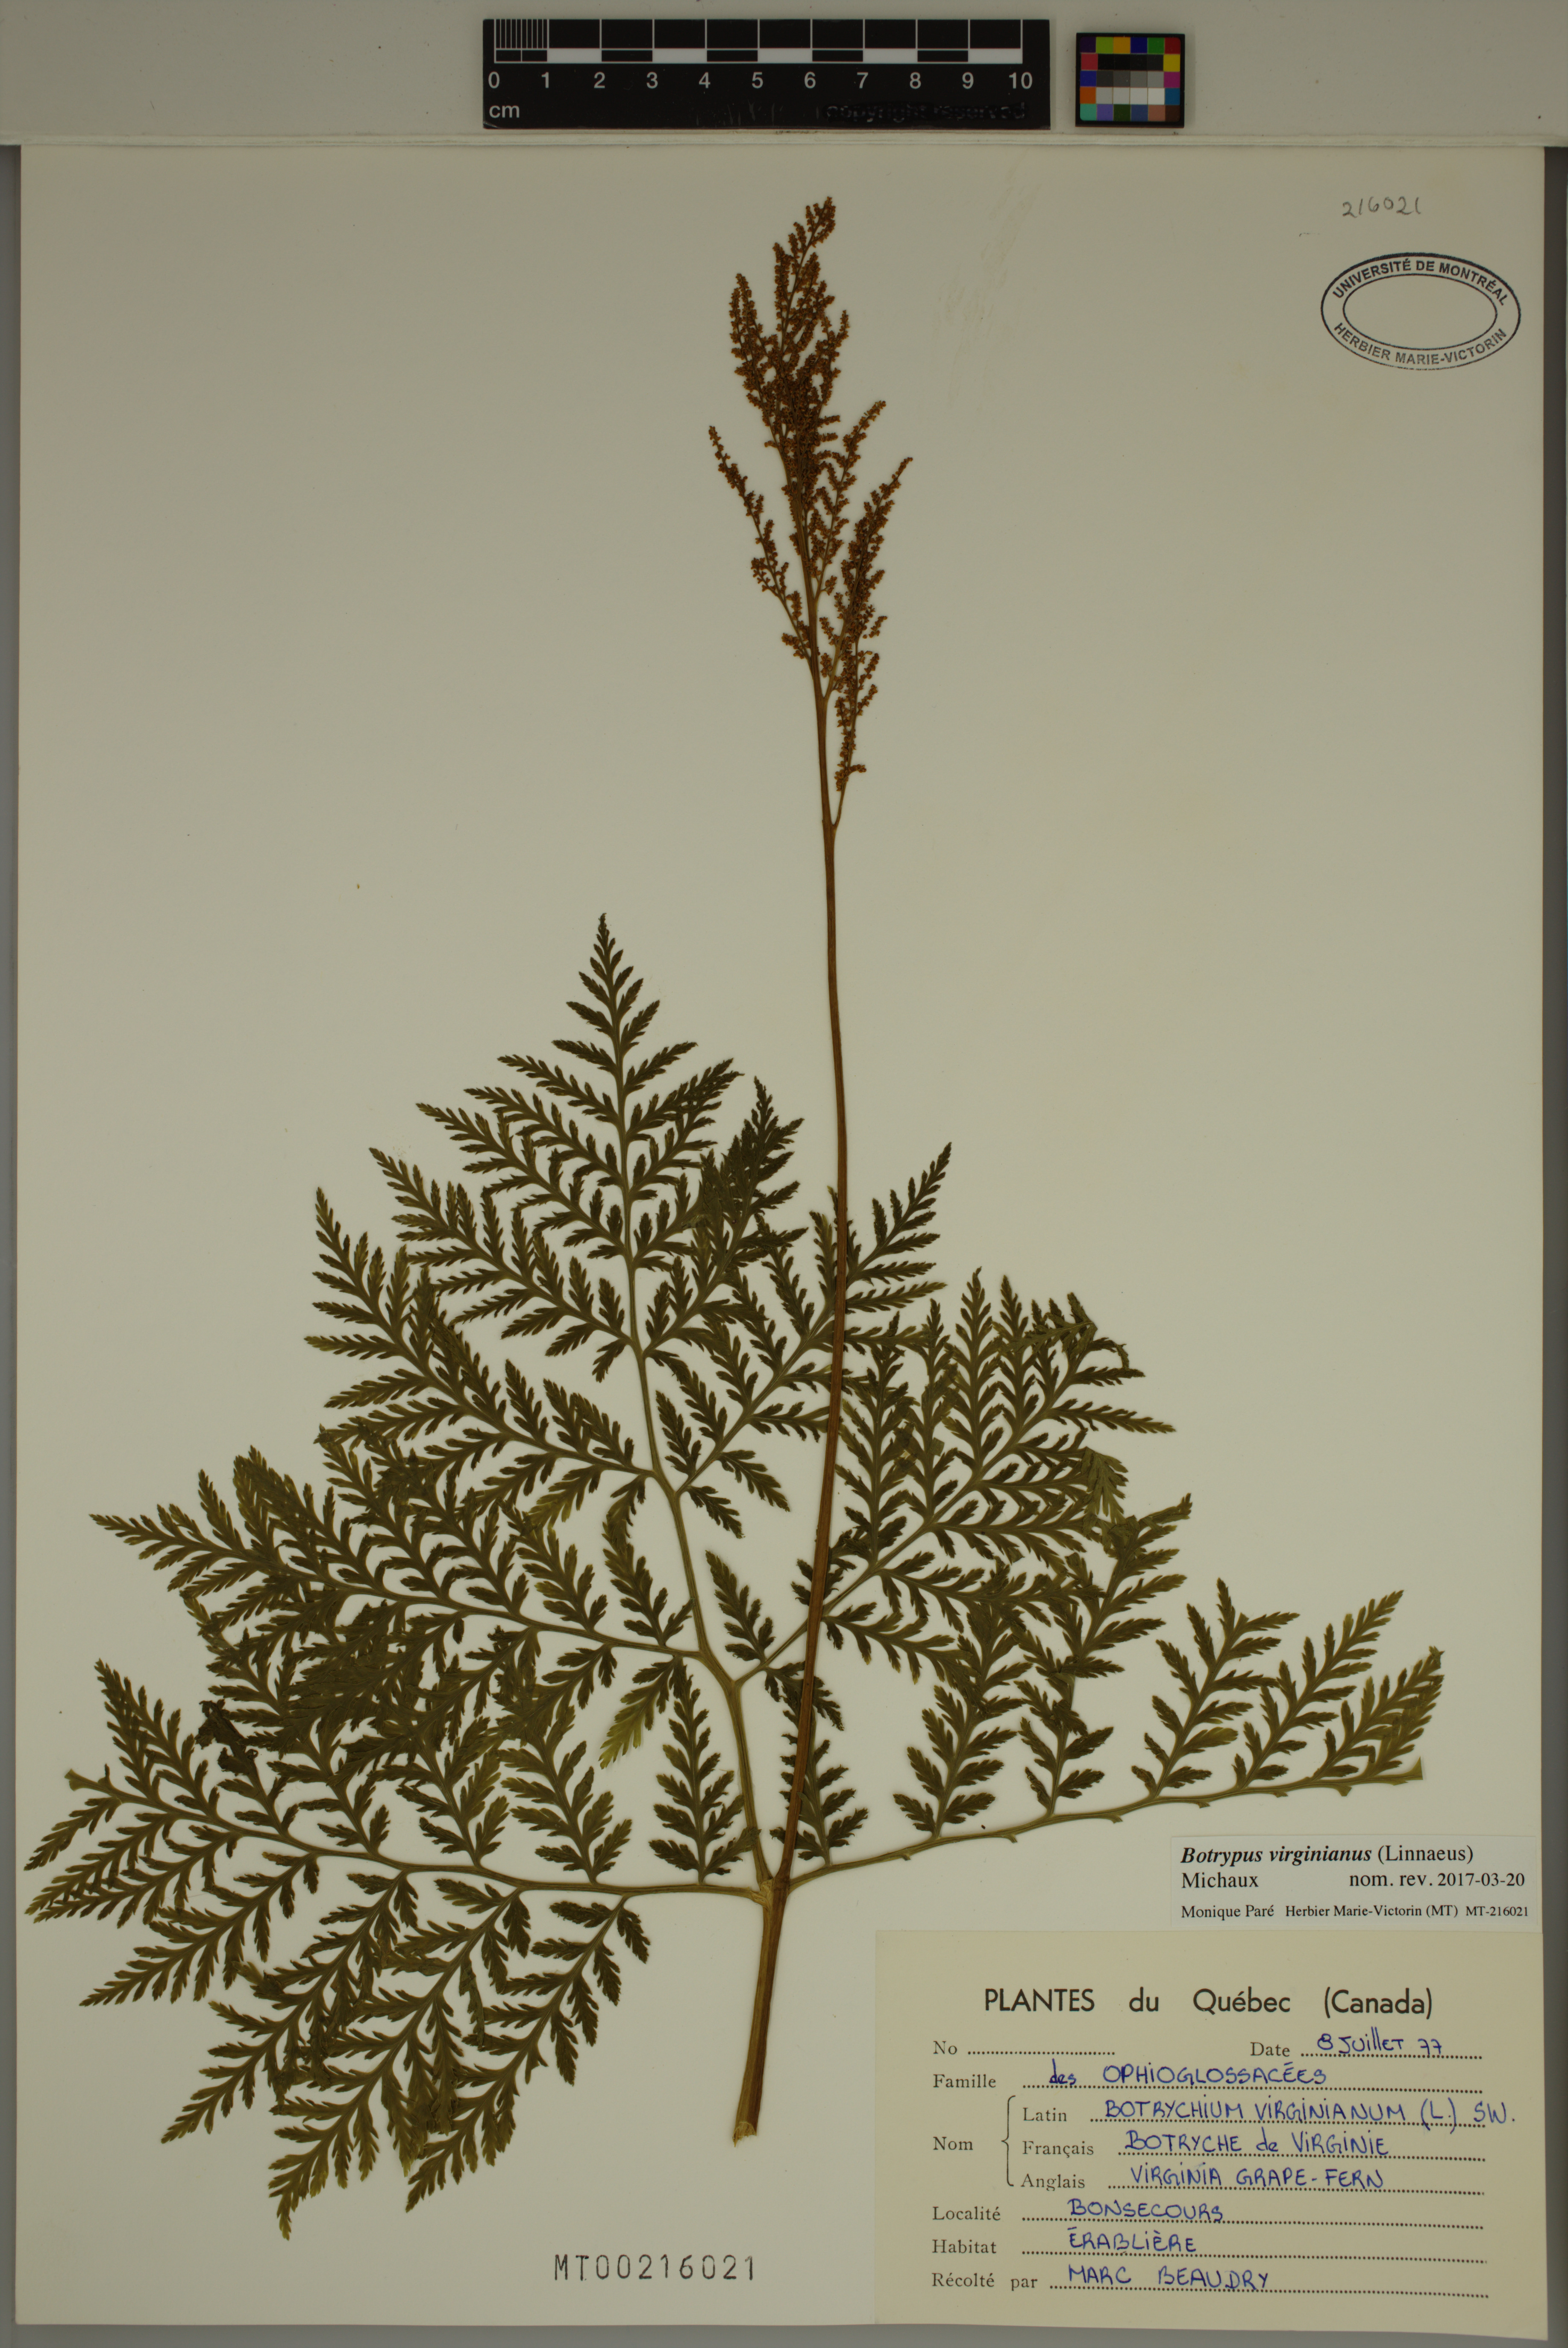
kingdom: Plantae
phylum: Tracheophyta
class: Polypodiopsida
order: Ophioglossales
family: Ophioglossaceae
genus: Botrypus
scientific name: Botrypus virginianus
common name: Common grapefern
